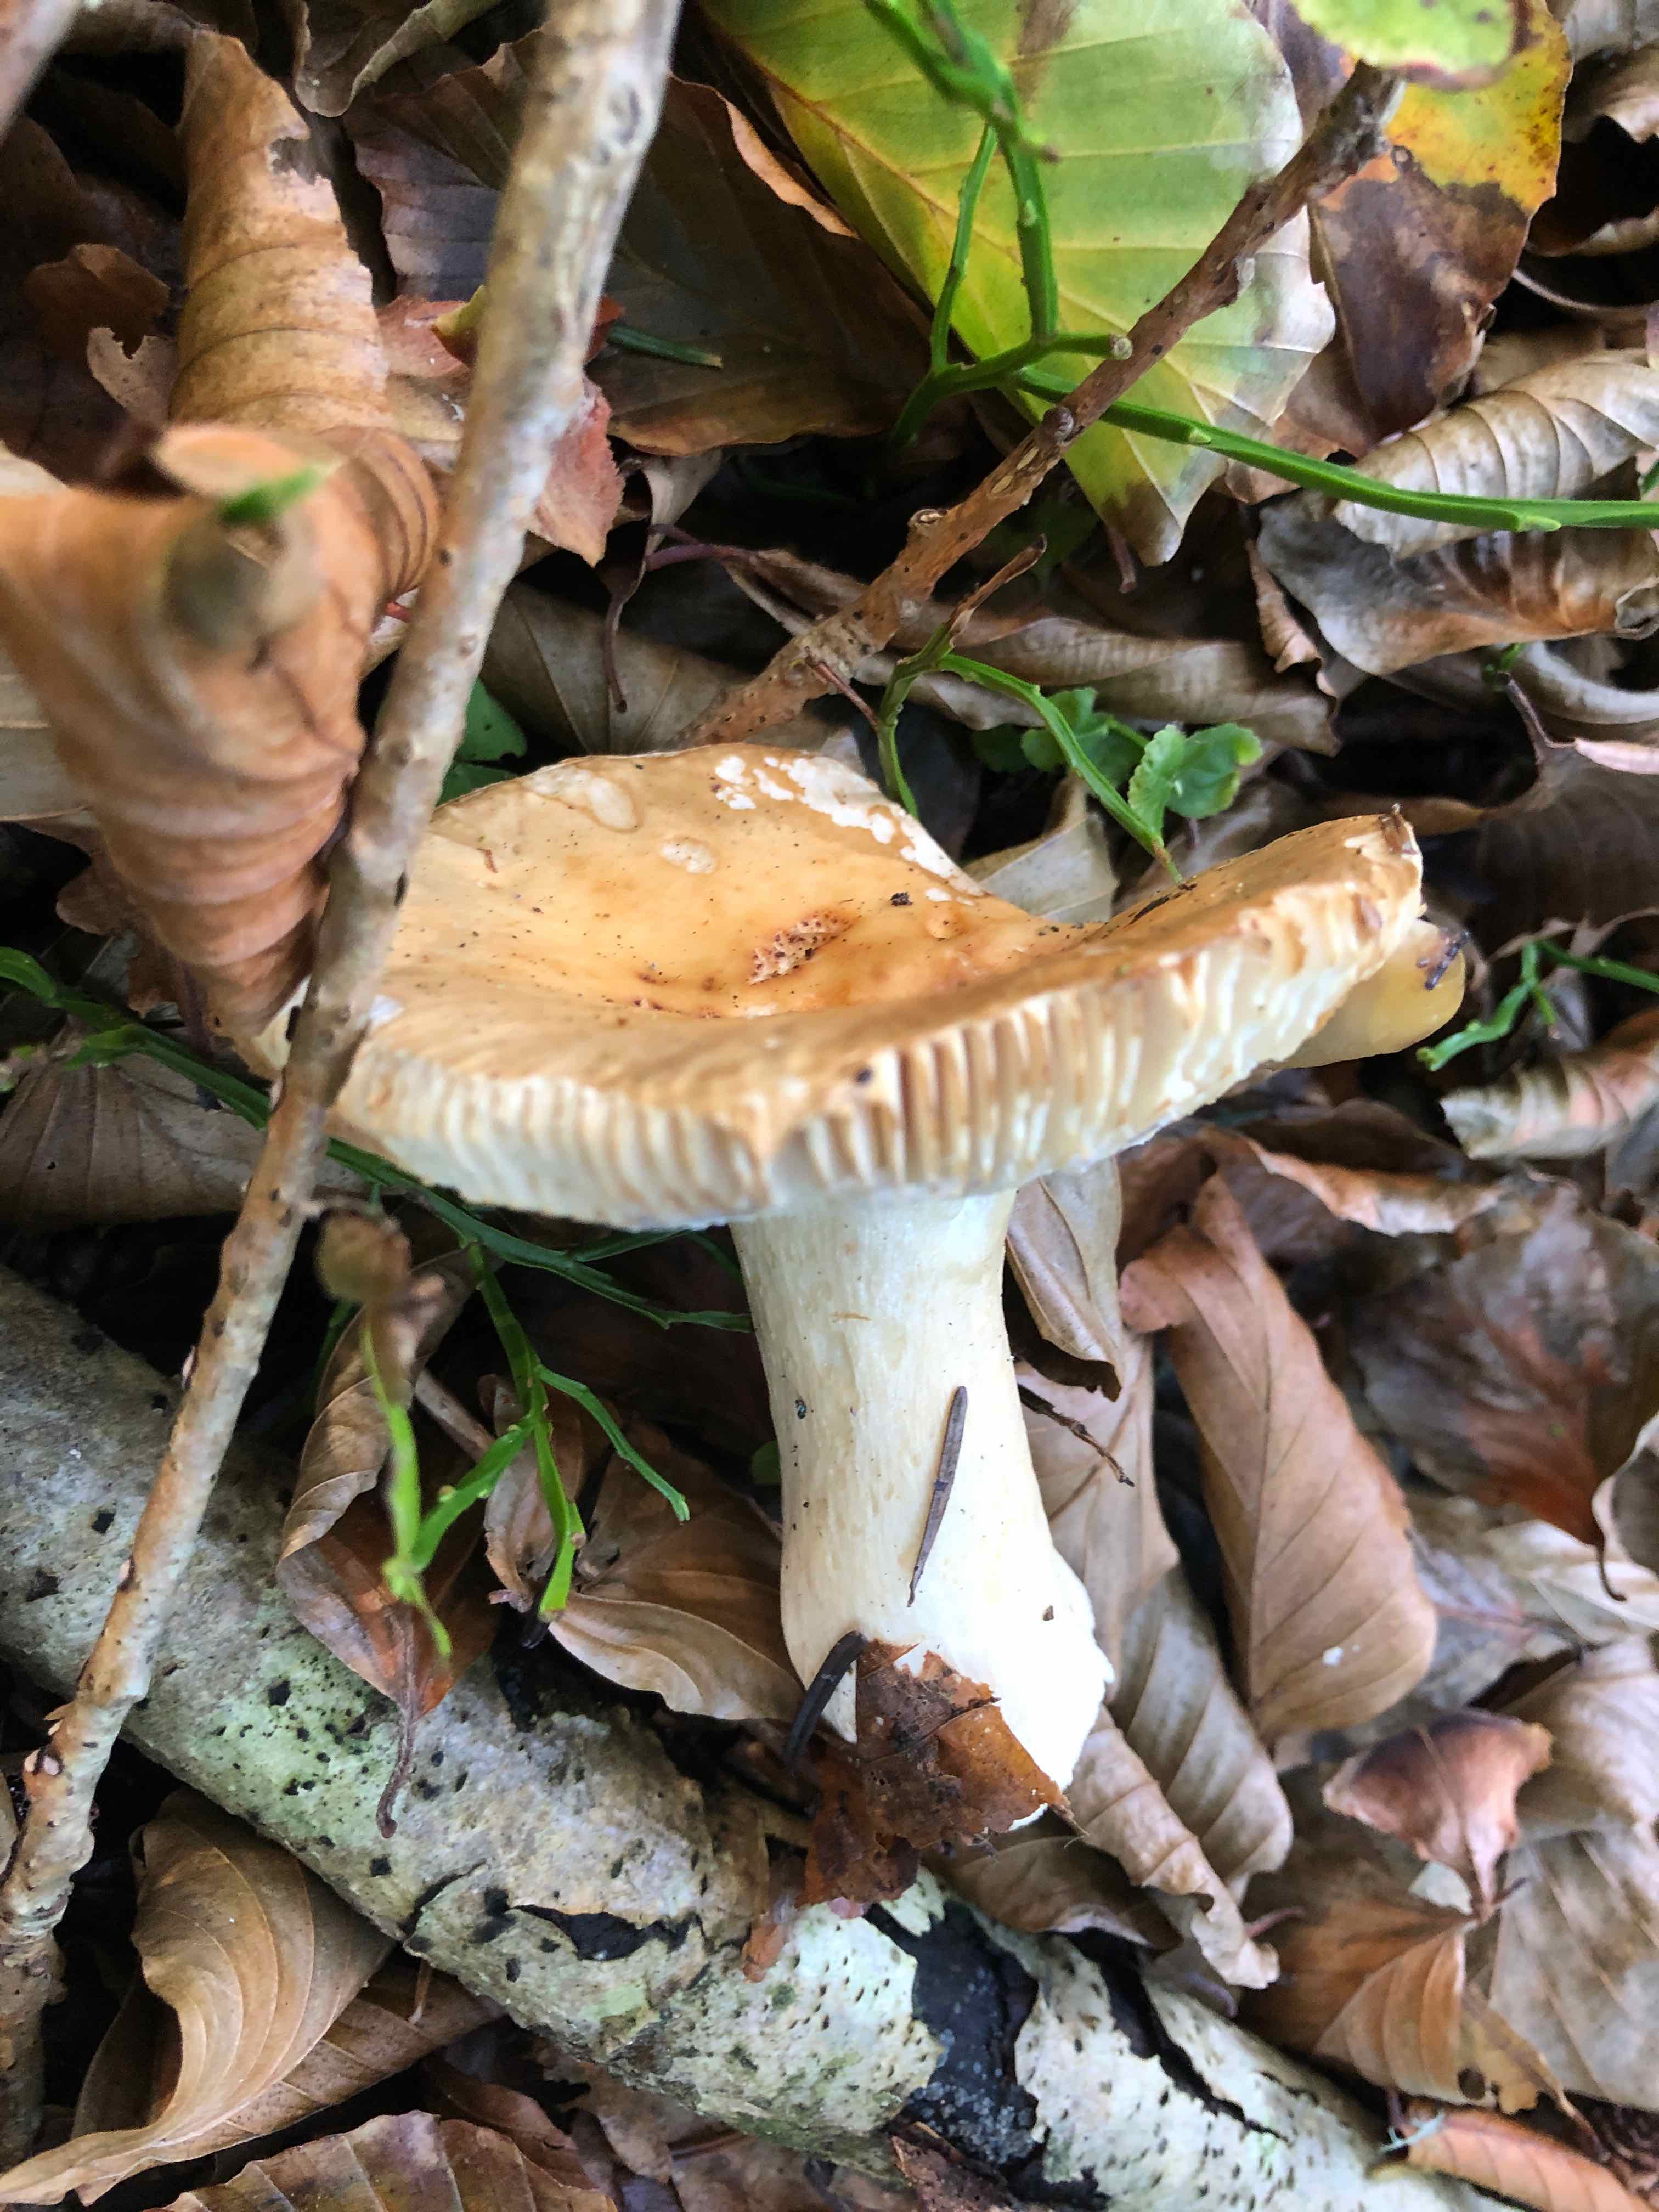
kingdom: Fungi
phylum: Basidiomycota
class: Agaricomycetes
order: Russulales
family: Russulaceae
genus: Russula
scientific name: Russula fellea
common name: galde-skørhat
